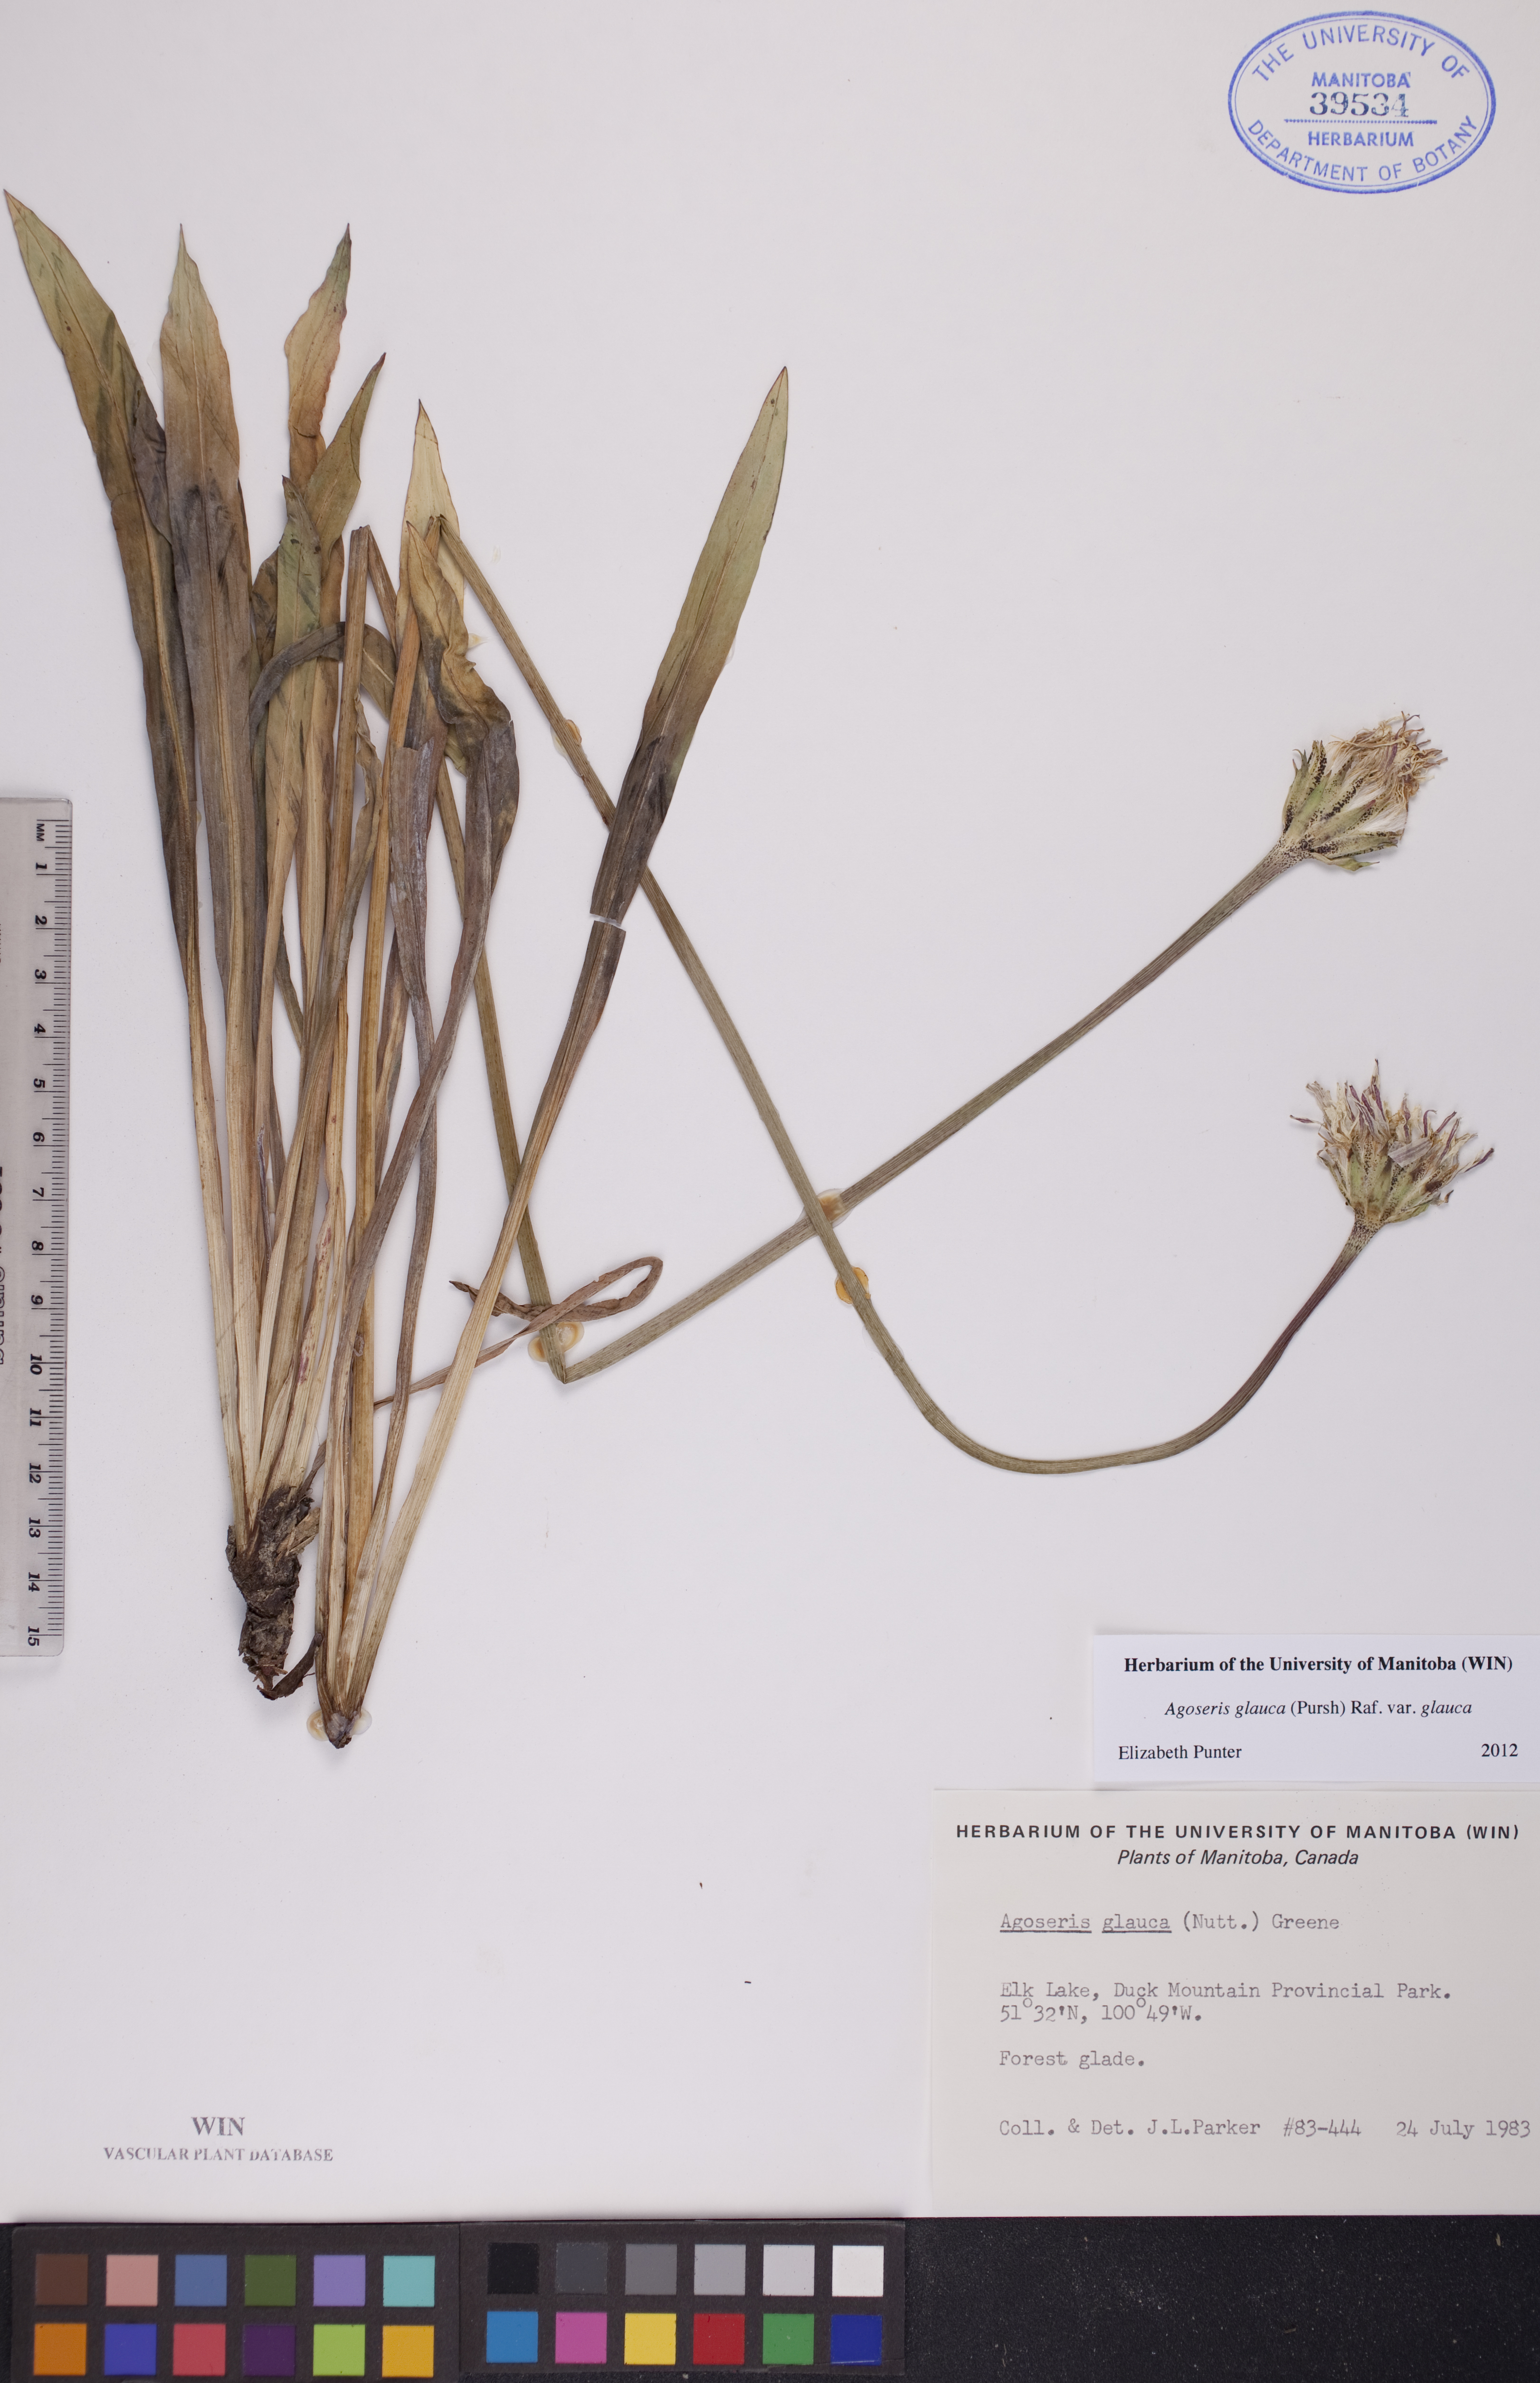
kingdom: Plantae
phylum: Tracheophyta
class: Magnoliopsida
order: Asterales
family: Asteraceae
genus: Agoseris
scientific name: Agoseris glauca
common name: Prairie agoseris
